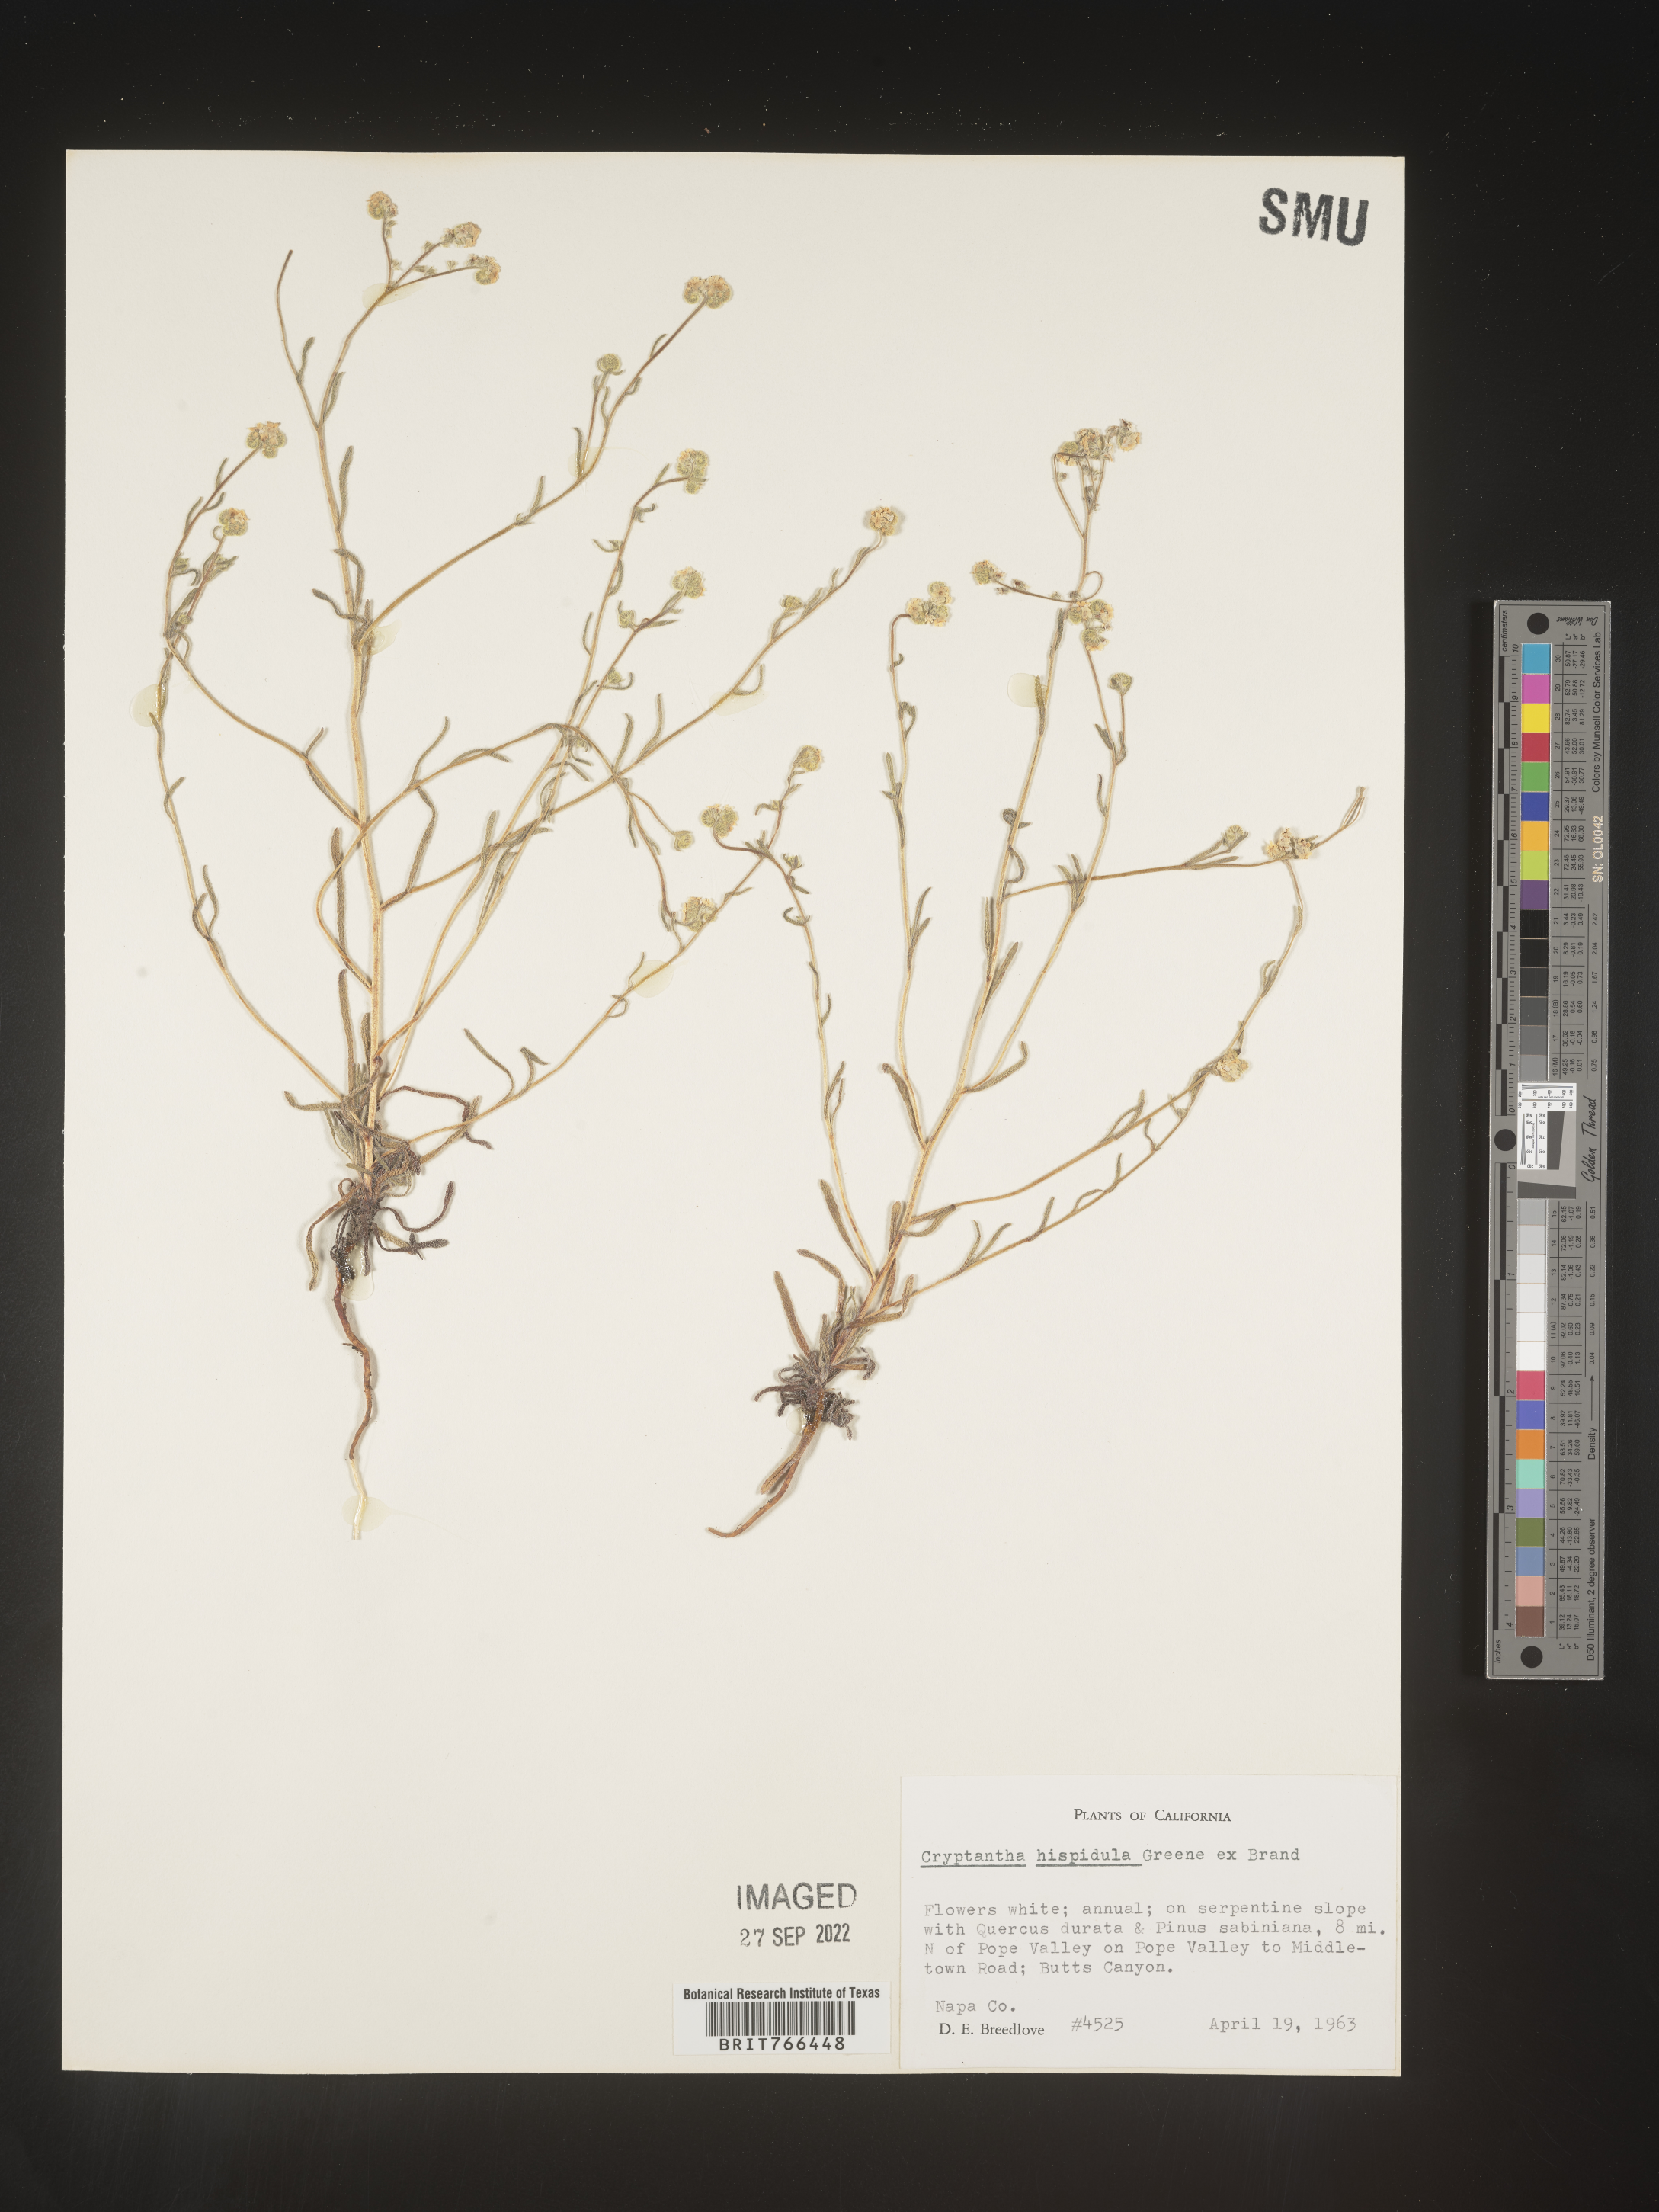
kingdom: Plantae
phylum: Tracheophyta
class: Magnoliopsida
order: Boraginales
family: Boraginaceae
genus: Cryptantha
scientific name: Cryptantha
